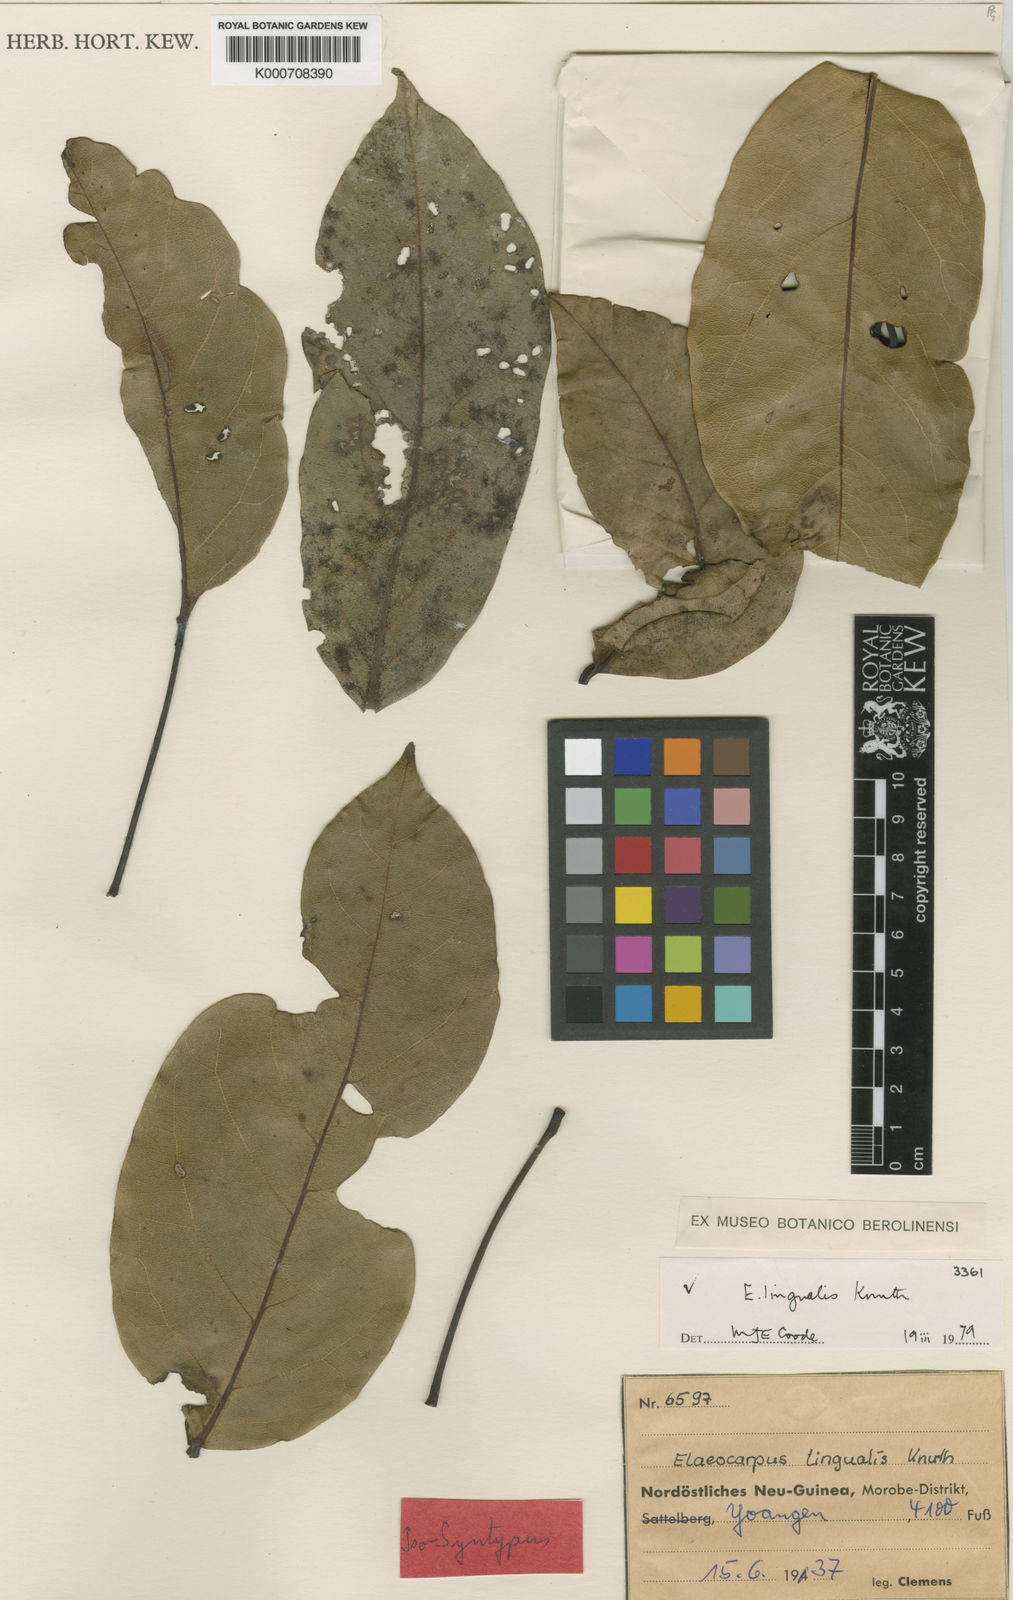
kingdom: Plantae
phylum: Tracheophyta
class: Magnoliopsida
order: Oxalidales
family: Elaeocarpaceae
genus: Elaeocarpus
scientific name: Elaeocarpus lingualis
